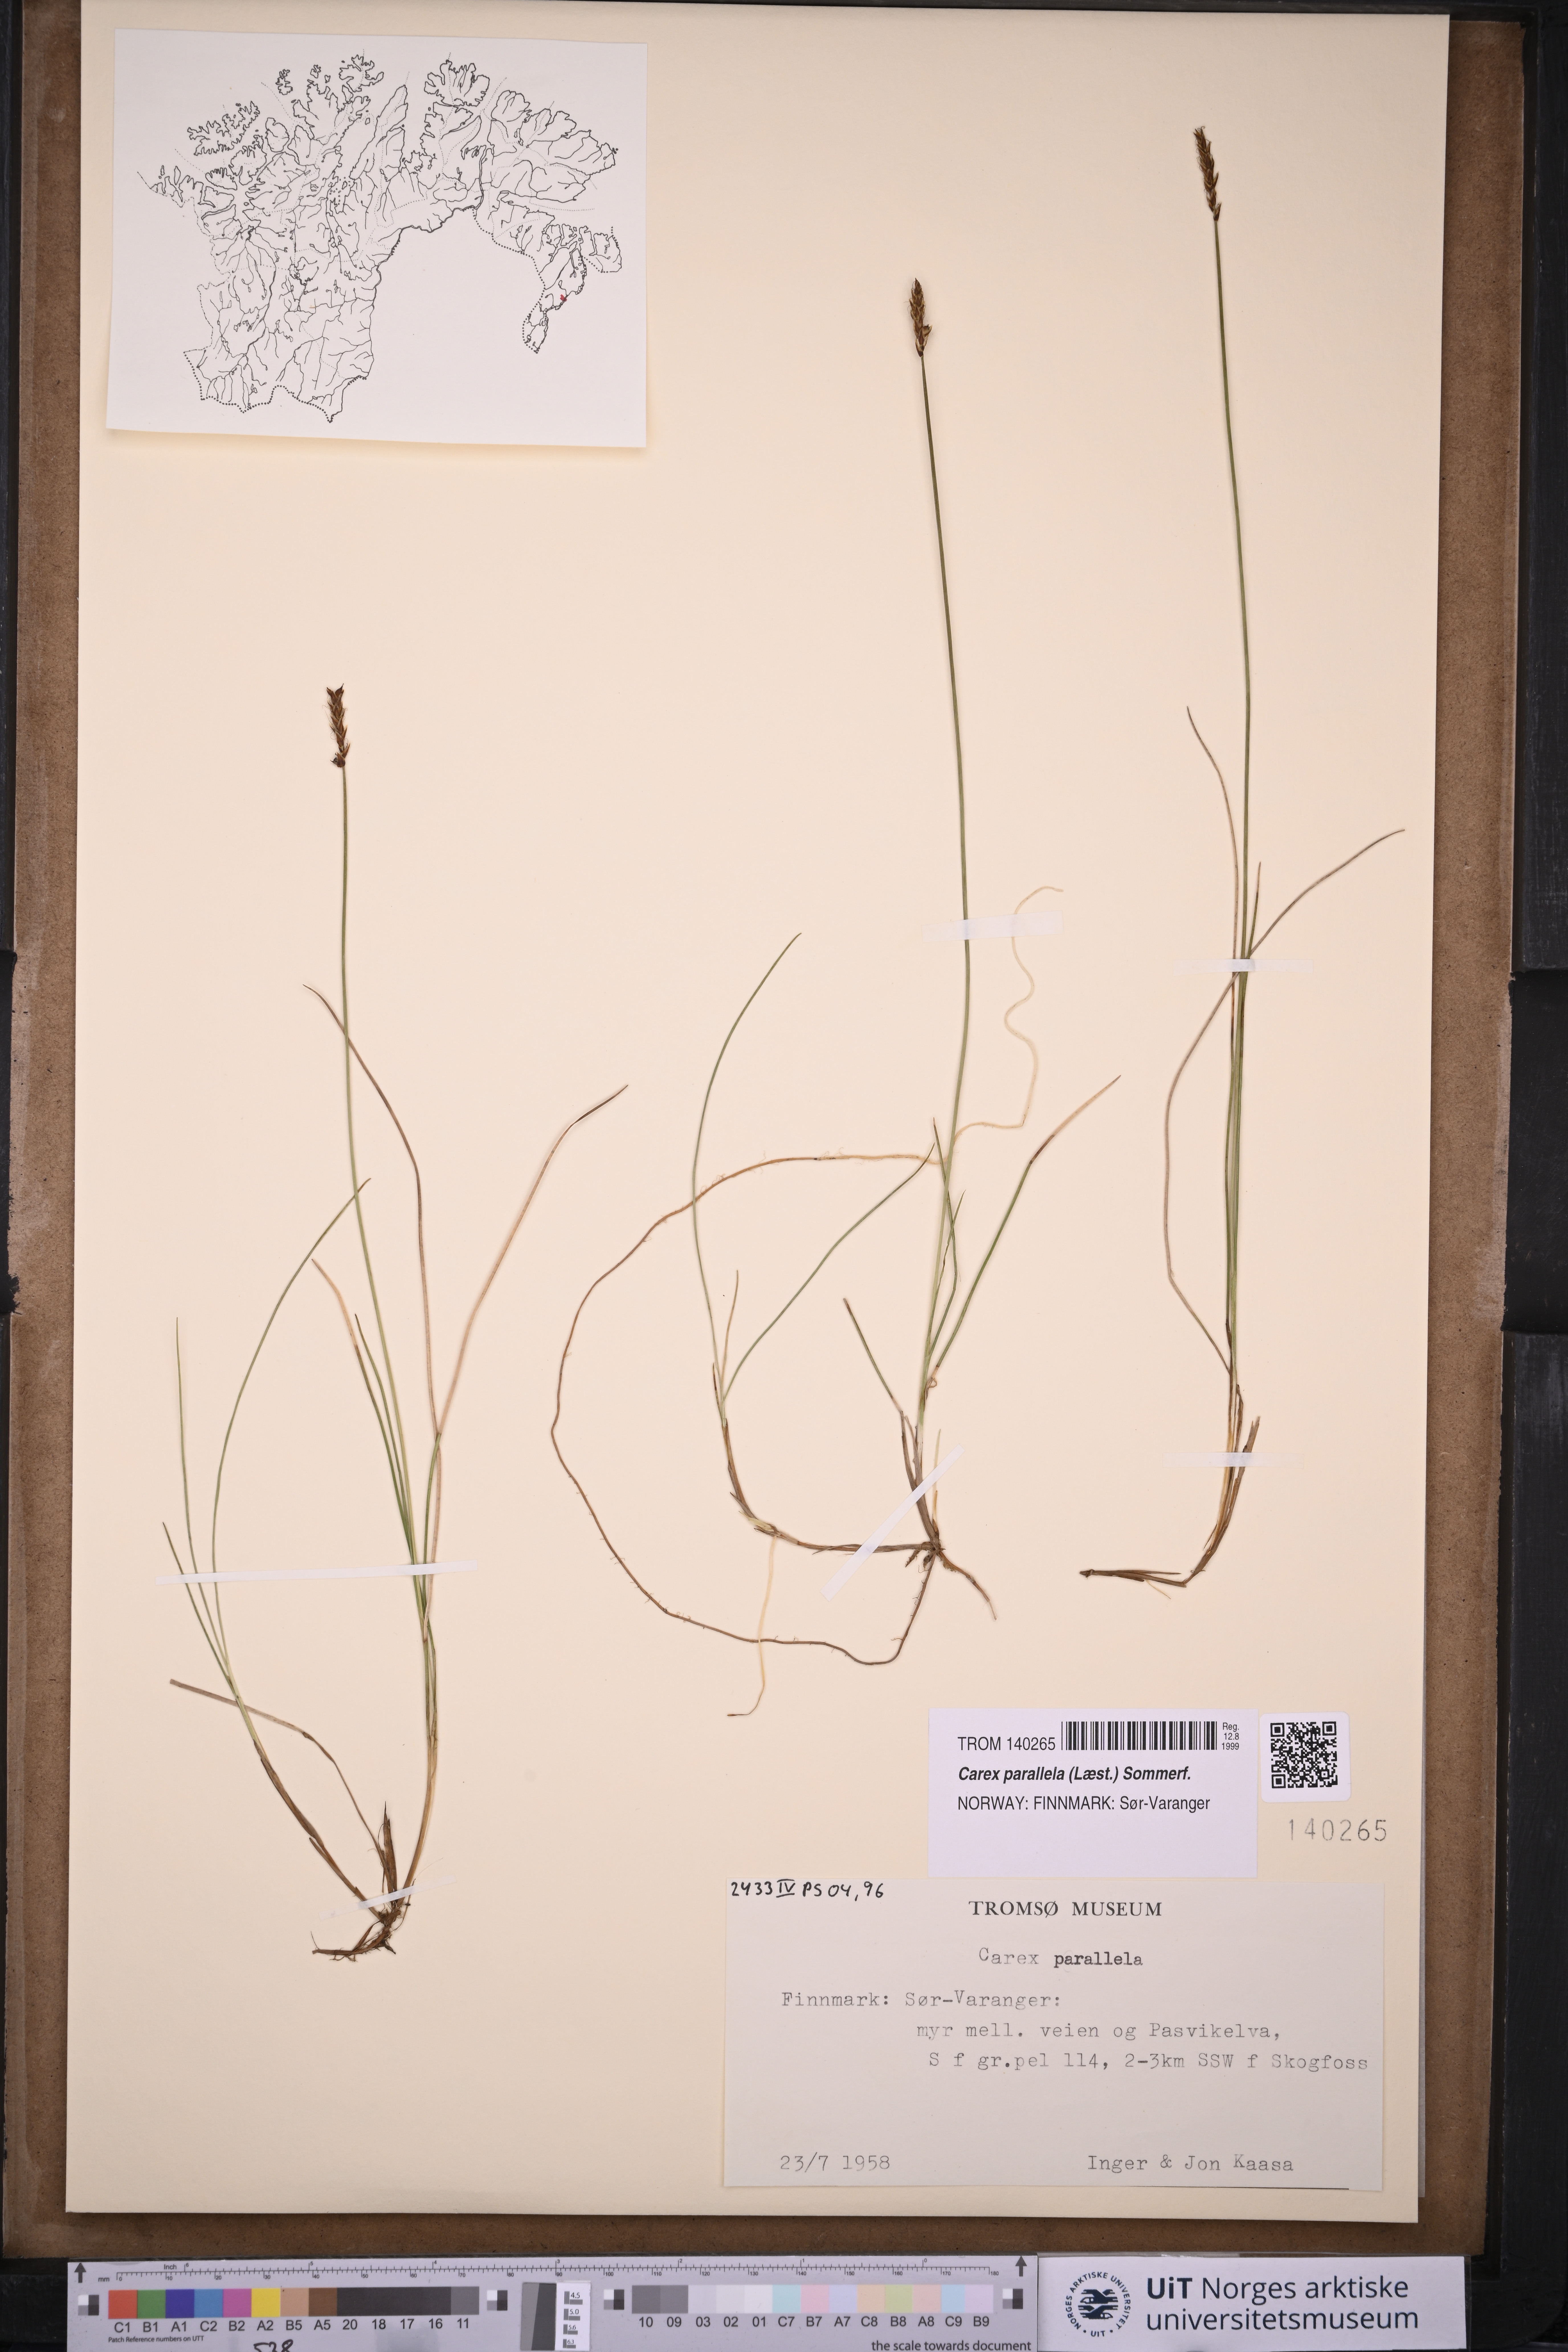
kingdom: Plantae
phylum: Tracheophyta
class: Liliopsida
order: Poales
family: Cyperaceae
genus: Carex
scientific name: Carex parallela
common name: Parallel sedge
